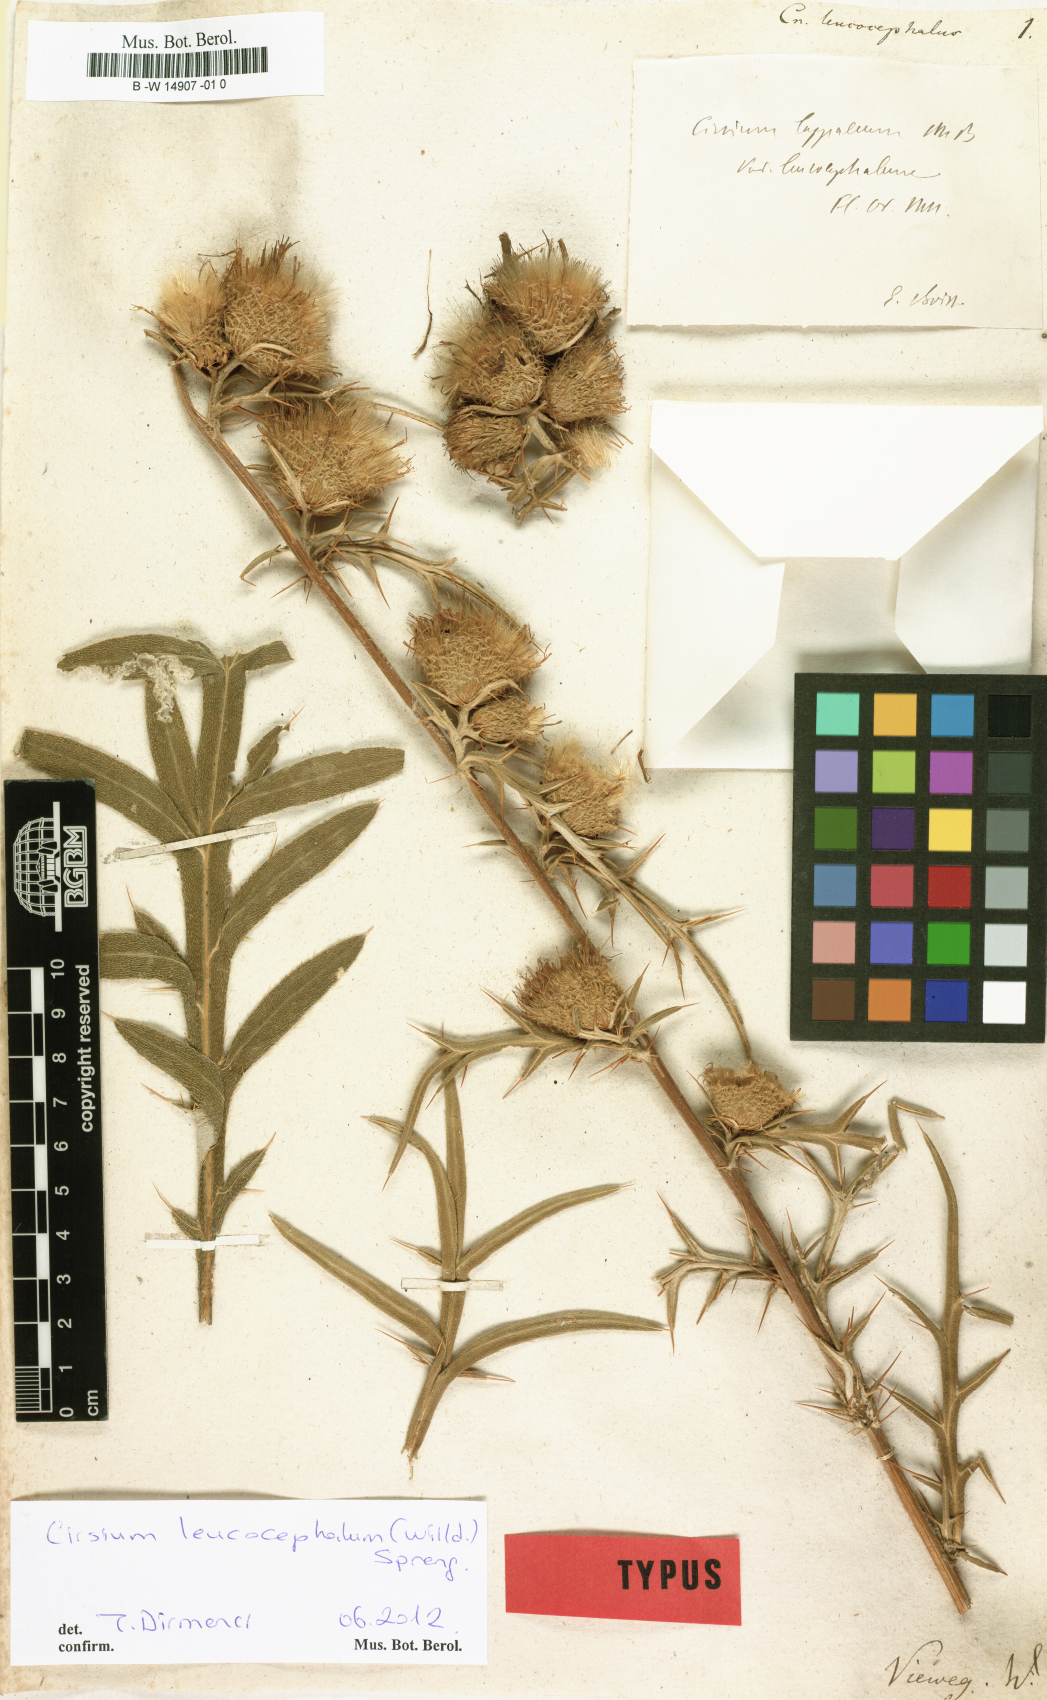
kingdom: Plantae
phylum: Tracheophyta
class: Magnoliopsida
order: Asterales
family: Asteraceae
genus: Lophiolepis
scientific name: Lophiolepis lappacea
